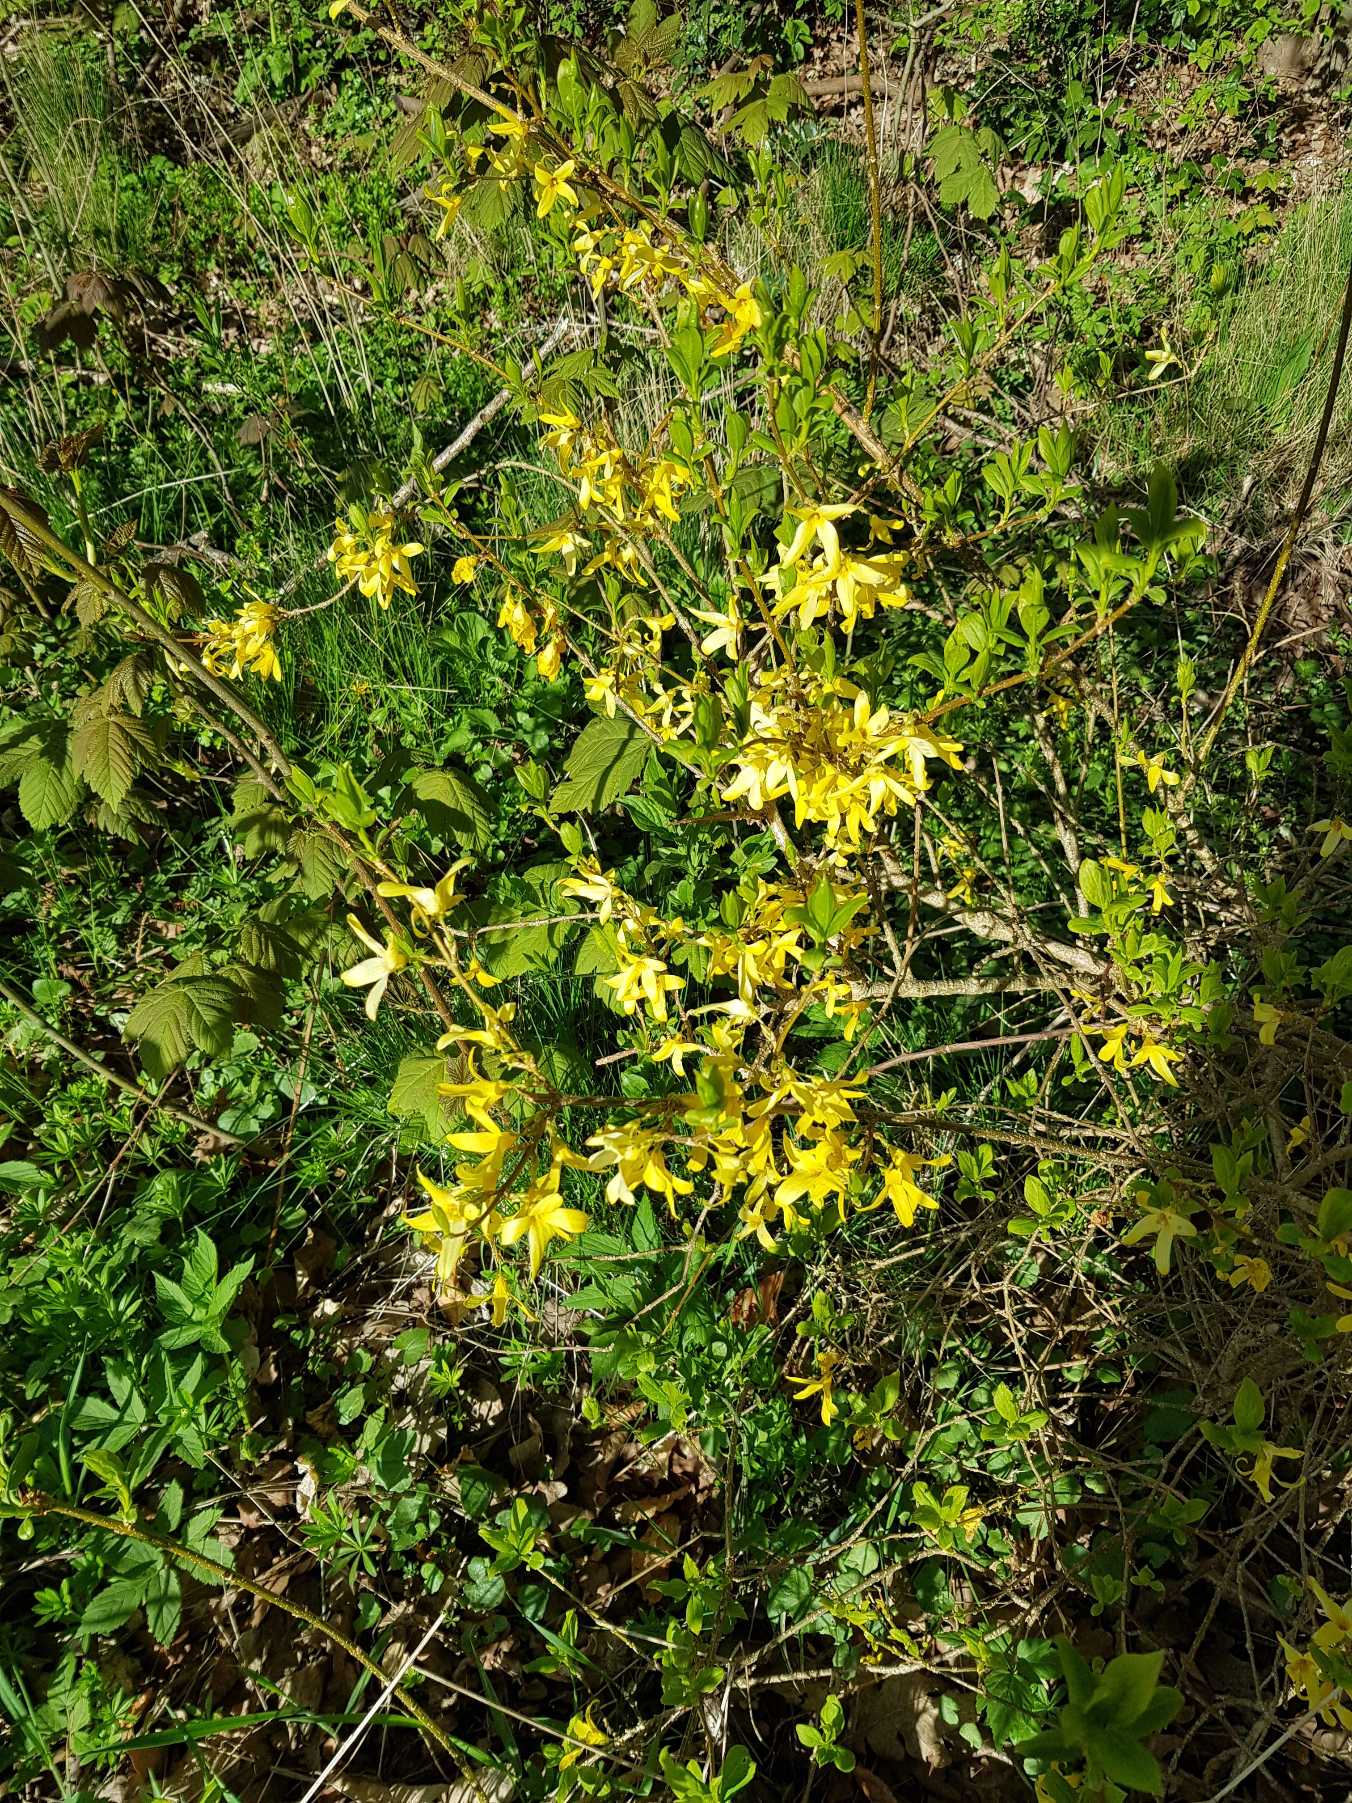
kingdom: Plantae
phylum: Tracheophyta
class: Magnoliopsida
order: Lamiales
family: Oleaceae
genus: Forsythia
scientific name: Forsythia intermedia
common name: Have-forsythia
